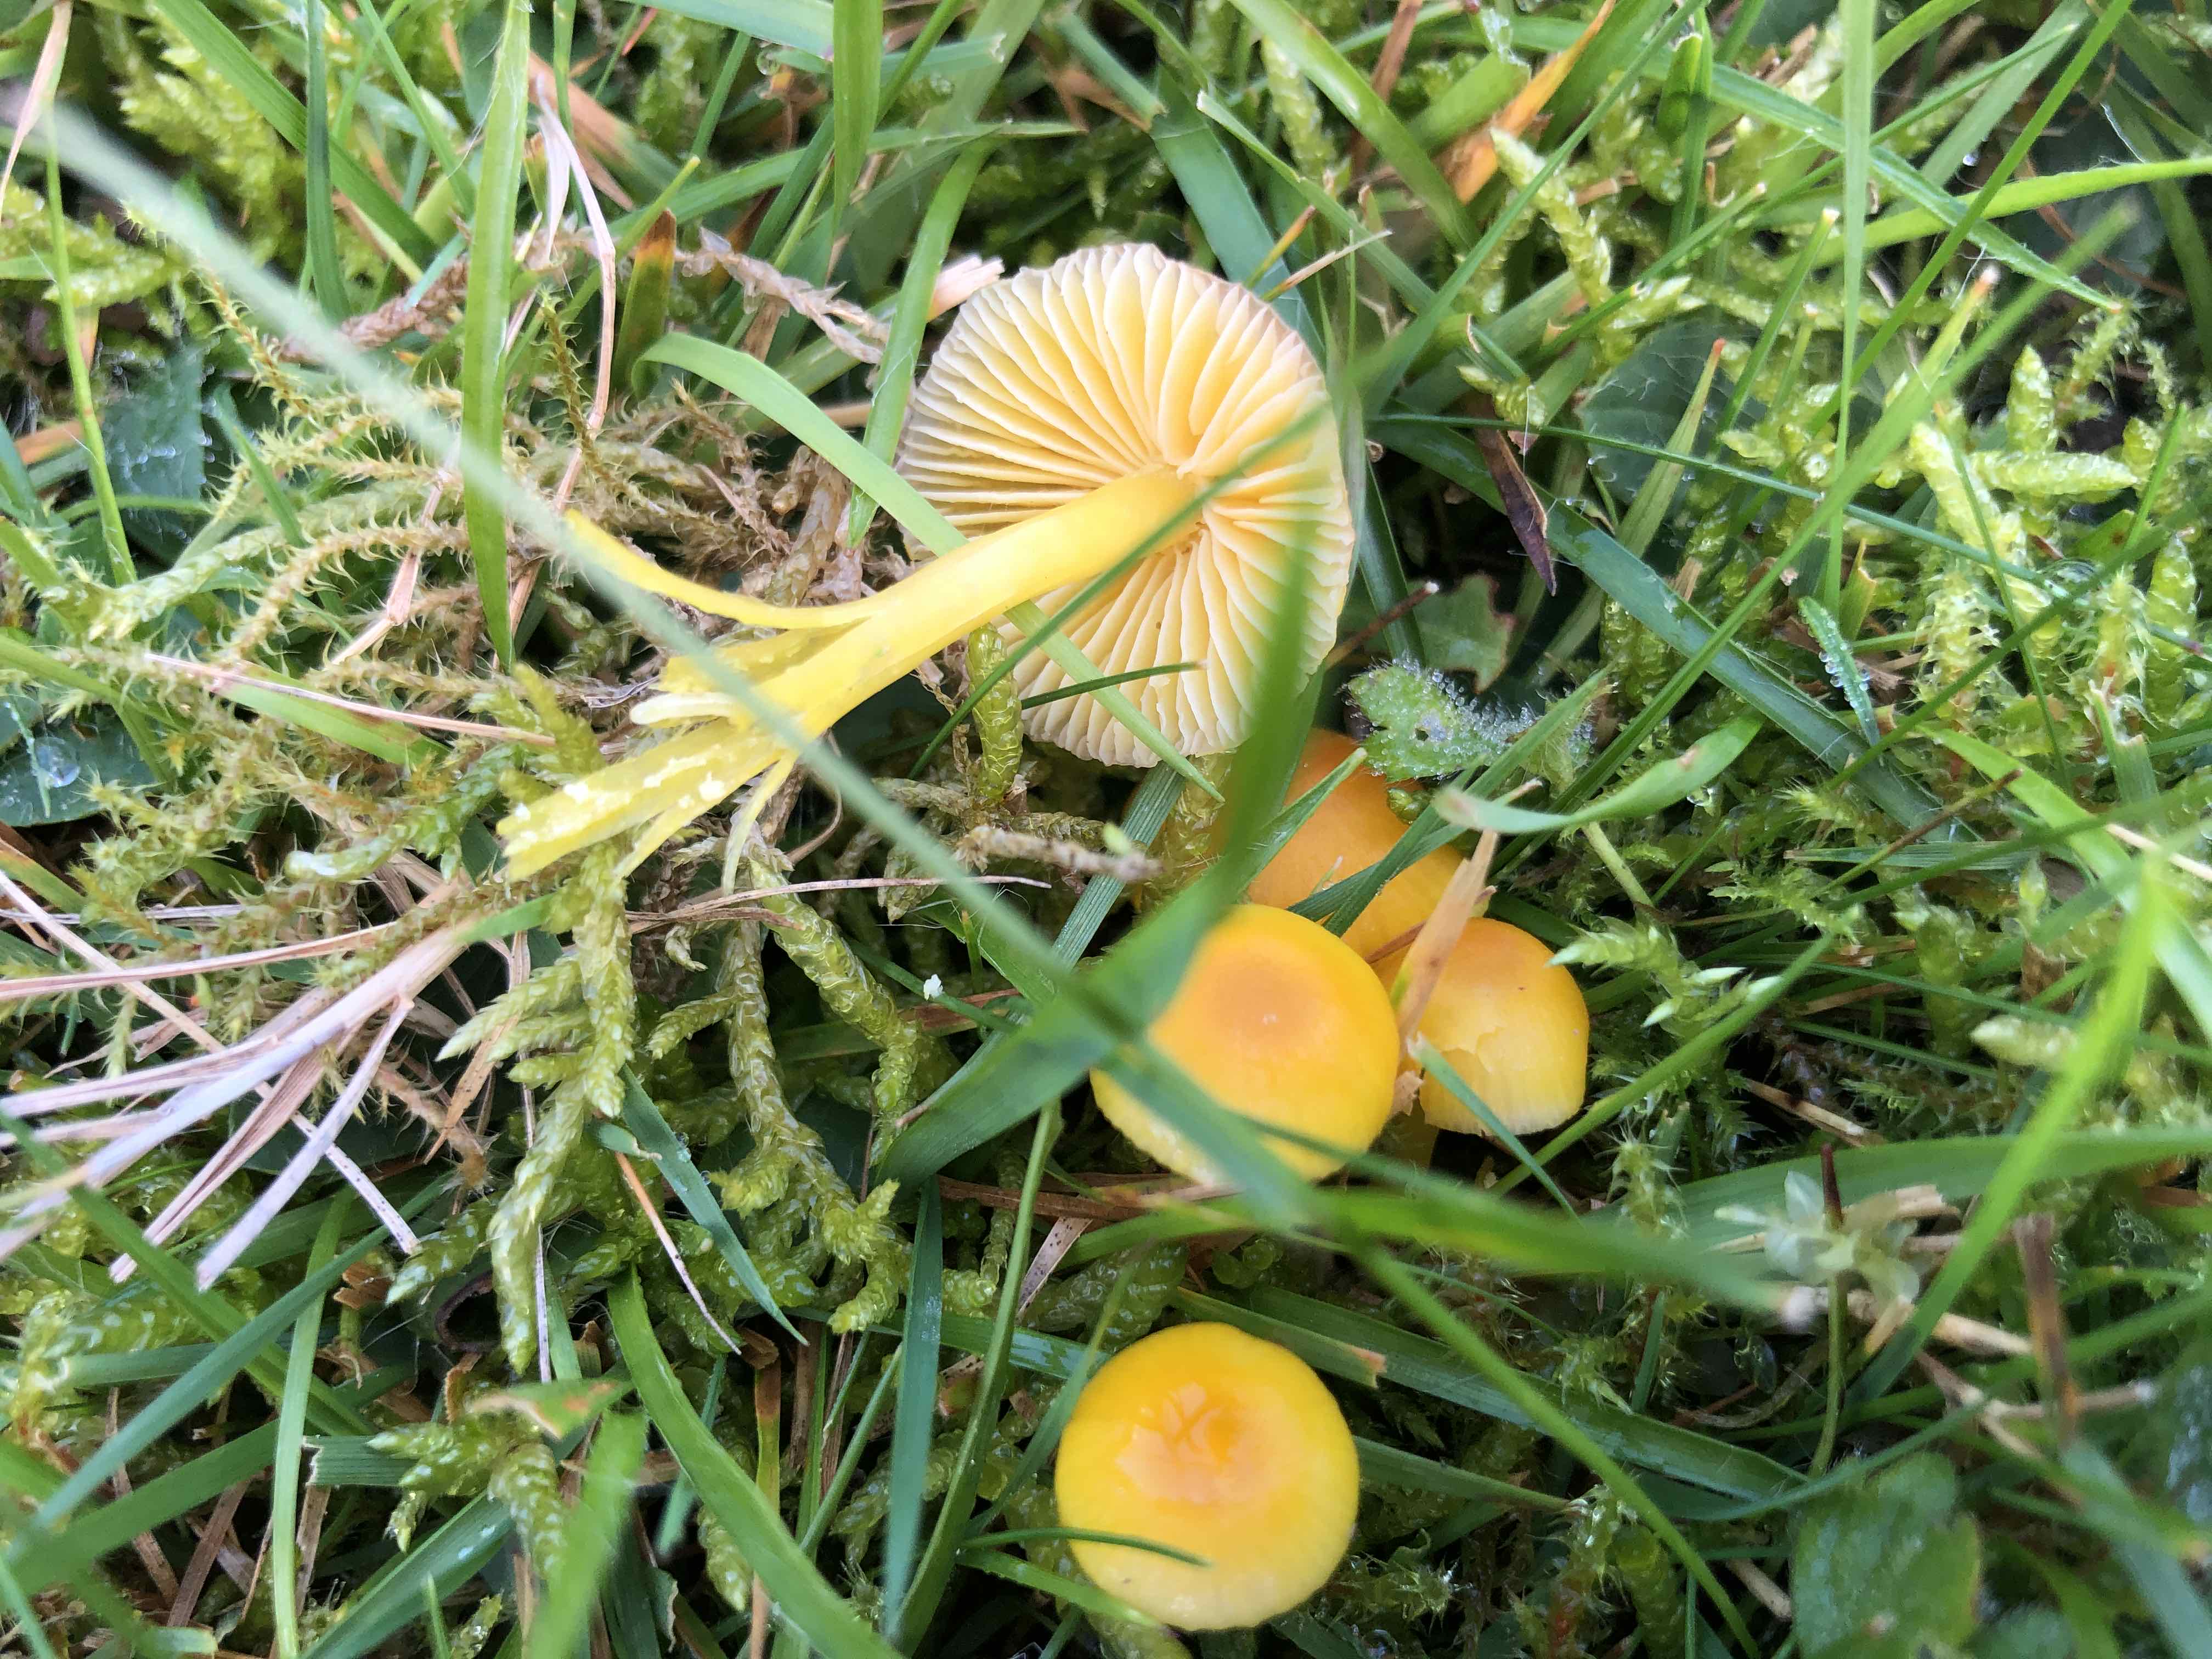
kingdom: Fungi
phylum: Basidiomycota
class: Agaricomycetes
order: Agaricales
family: Hygrophoraceae
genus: Hygrocybe
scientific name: Hygrocybe ceracea
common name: voksgul vokshat
